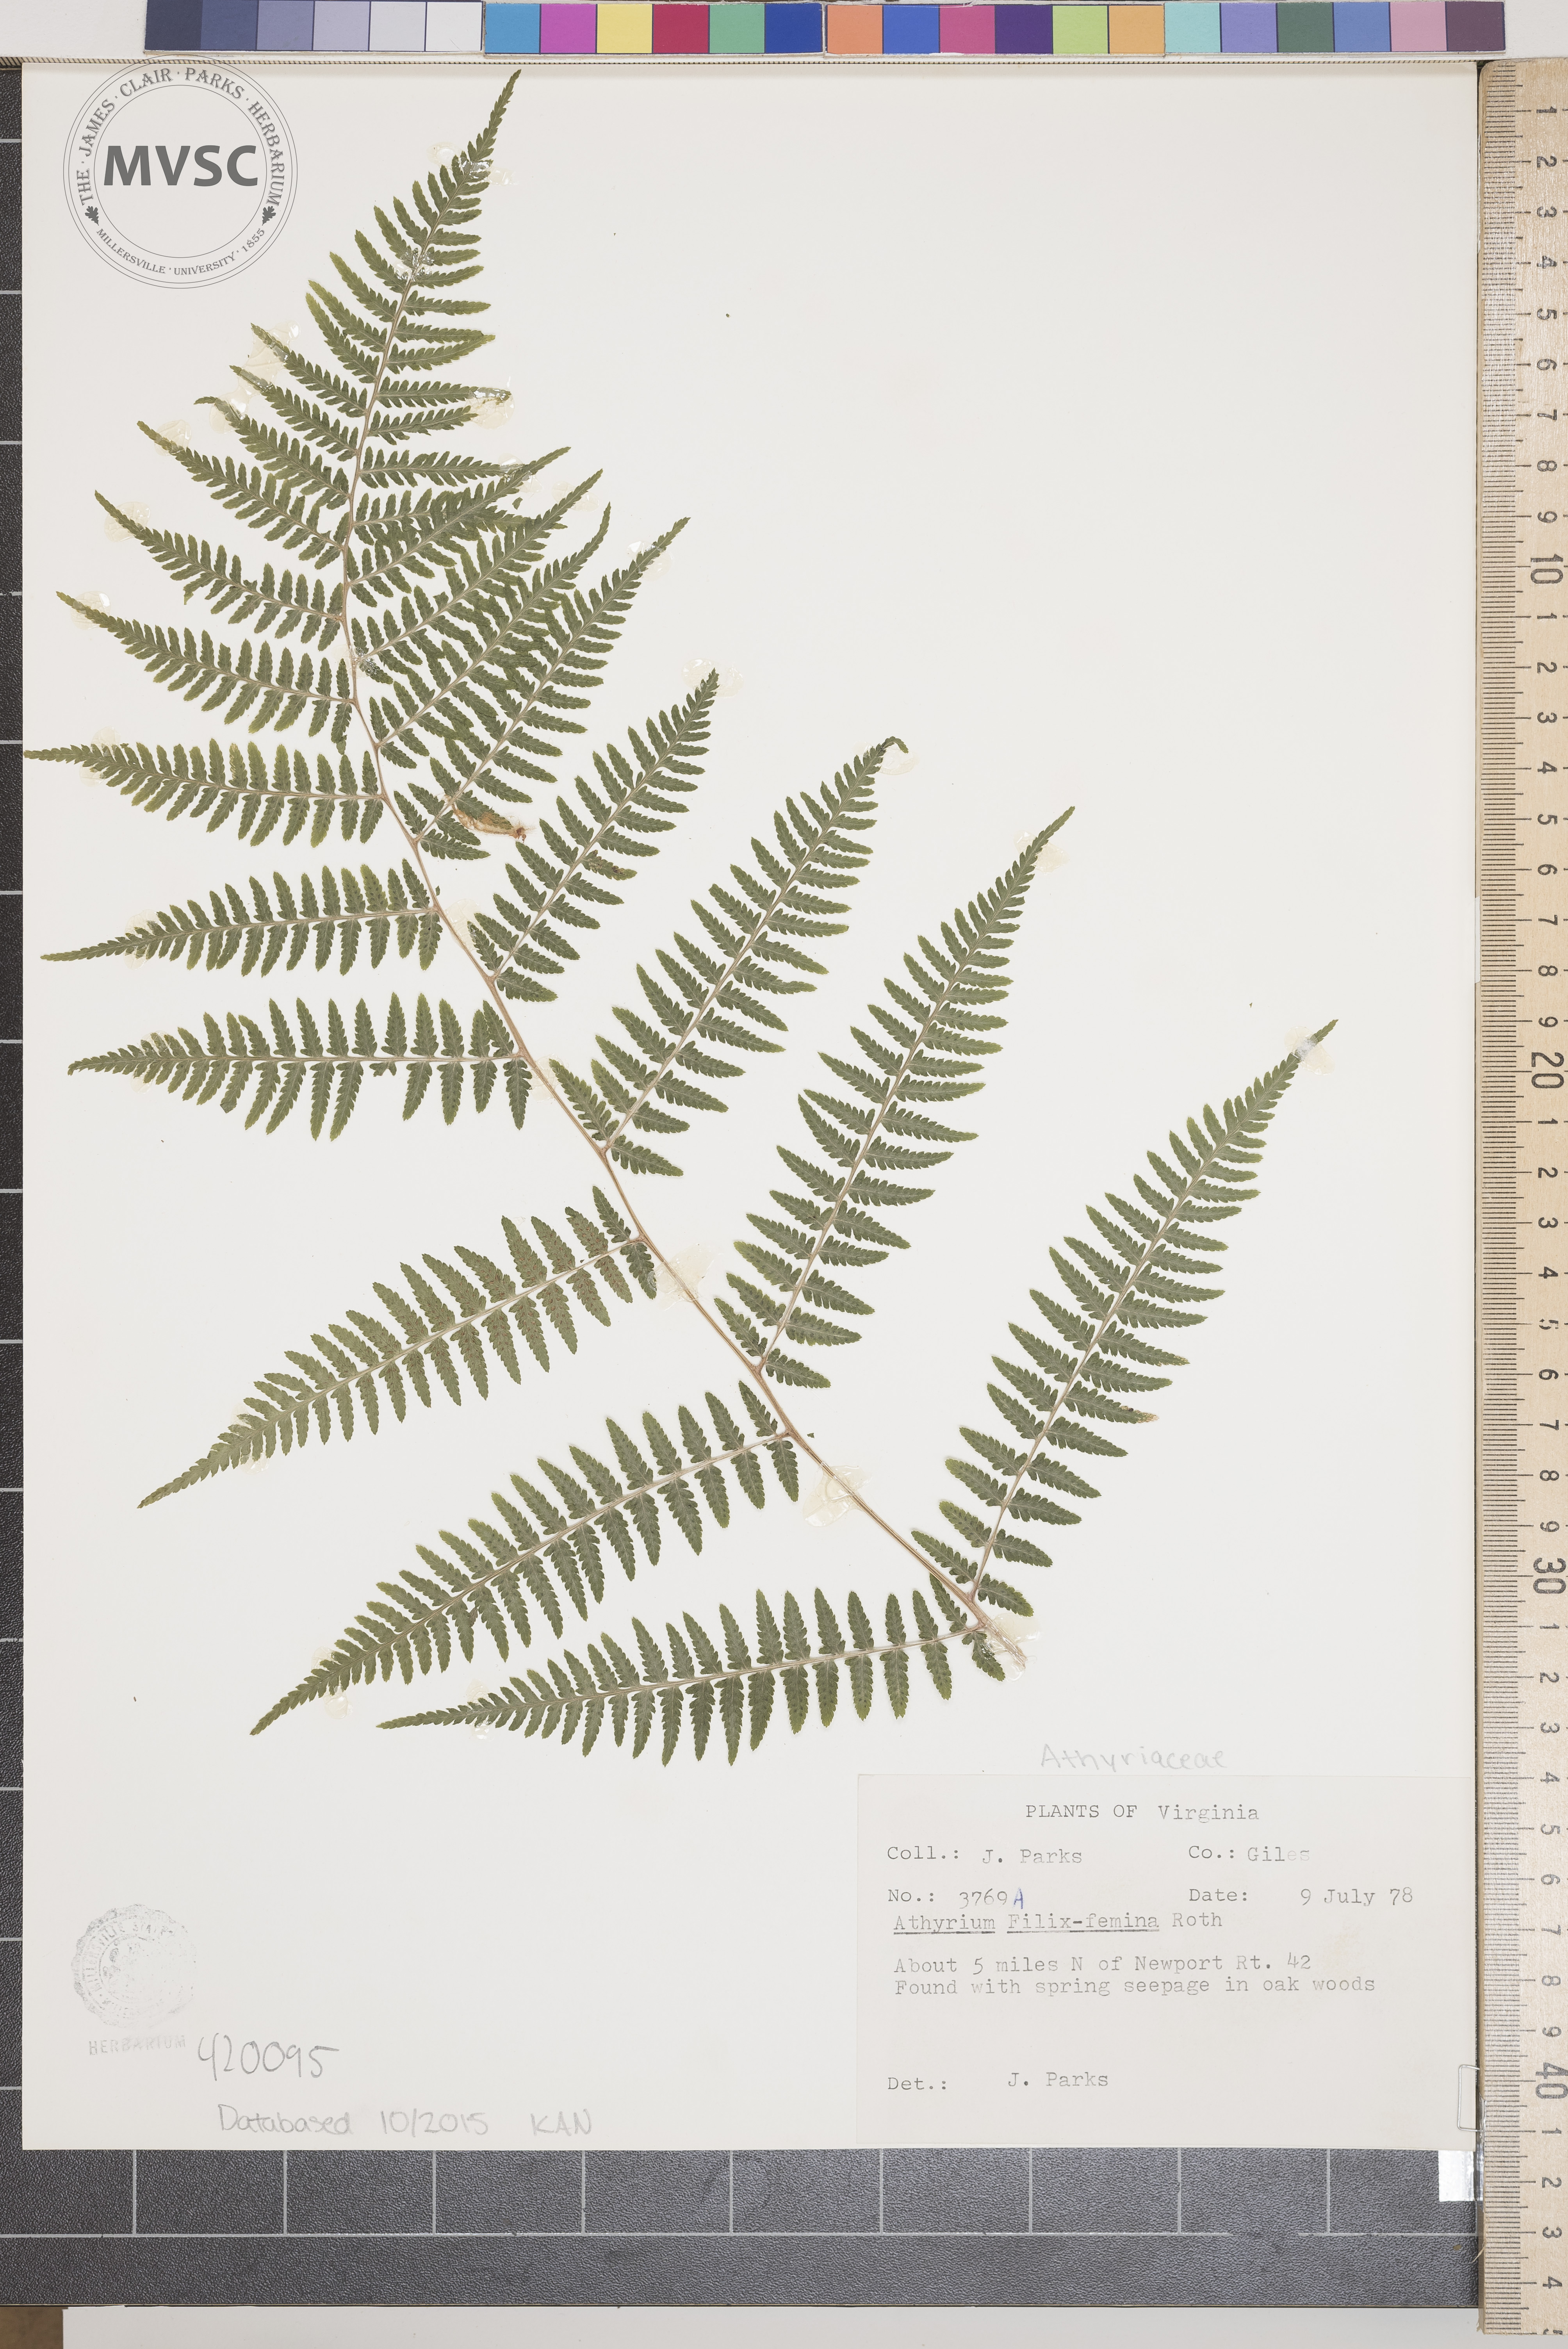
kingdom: Plantae
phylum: Tracheophyta
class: Polypodiopsida
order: Polypodiales
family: Athyriaceae
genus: Athyrium
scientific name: Athyrium filix-femina
